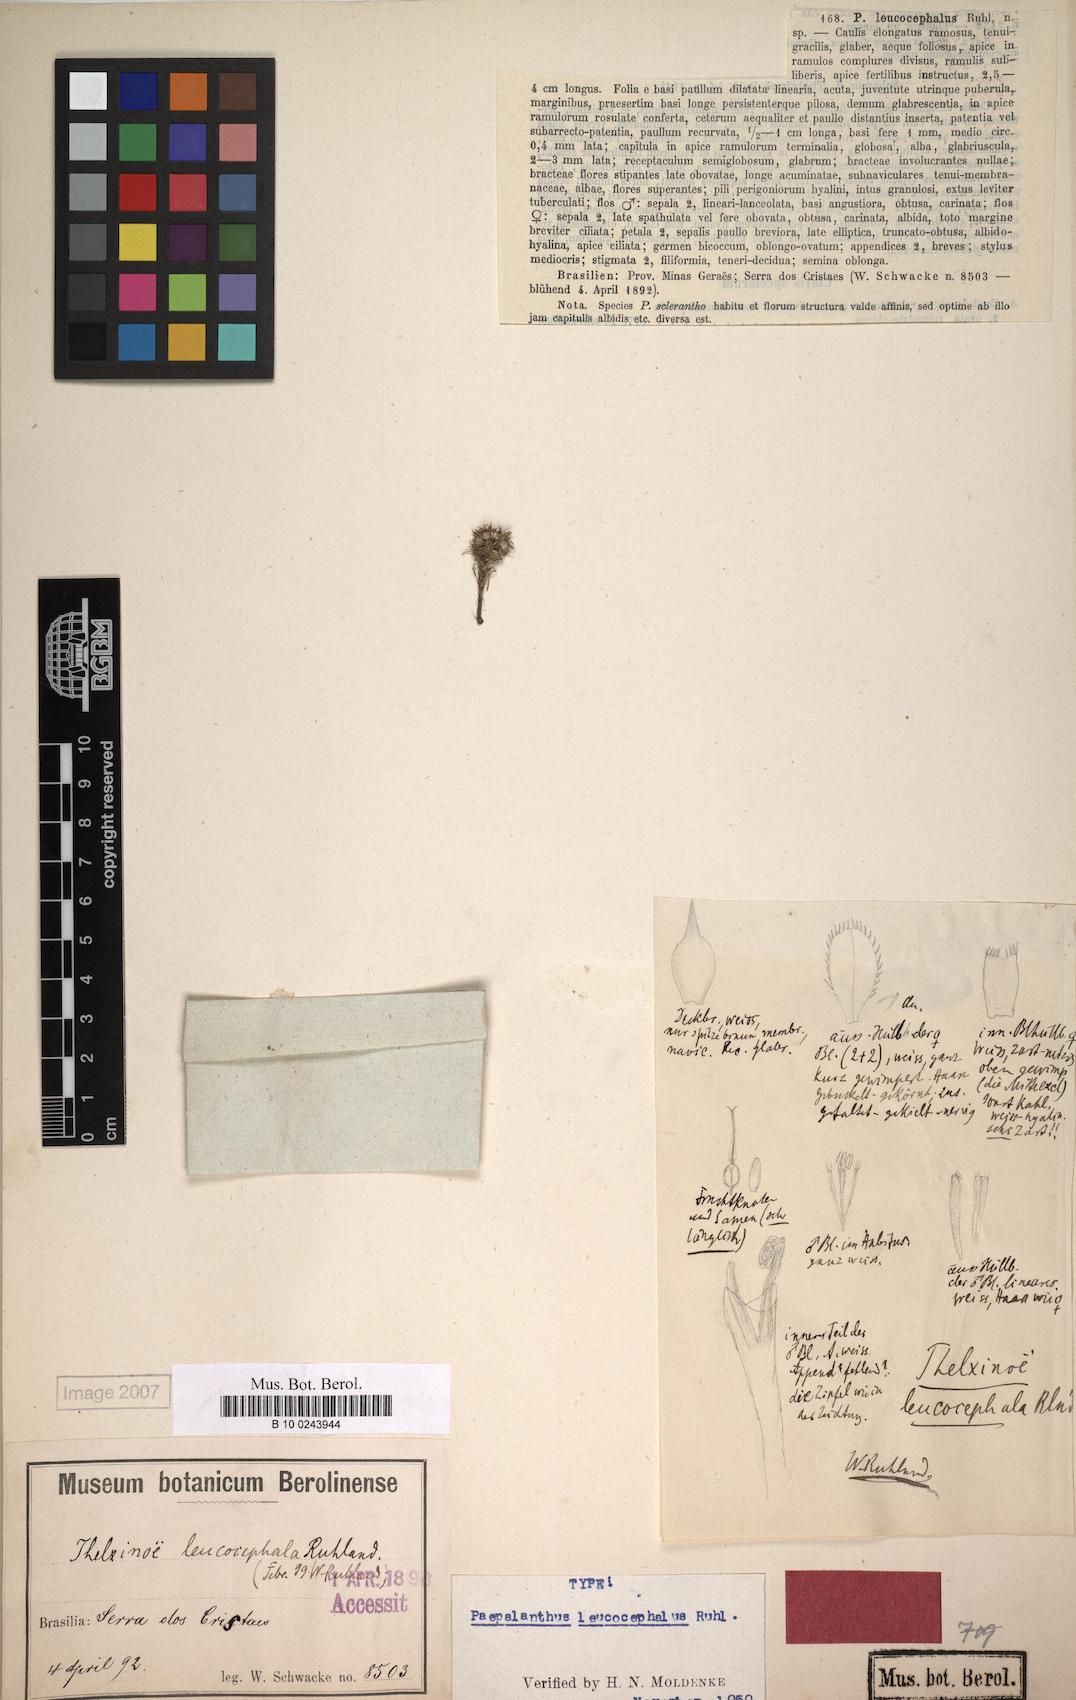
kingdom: Plantae
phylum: Tracheophyta
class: Liliopsida
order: Poales
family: Eriocaulaceae
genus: Paepalanthus
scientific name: Paepalanthus leucocephalus
